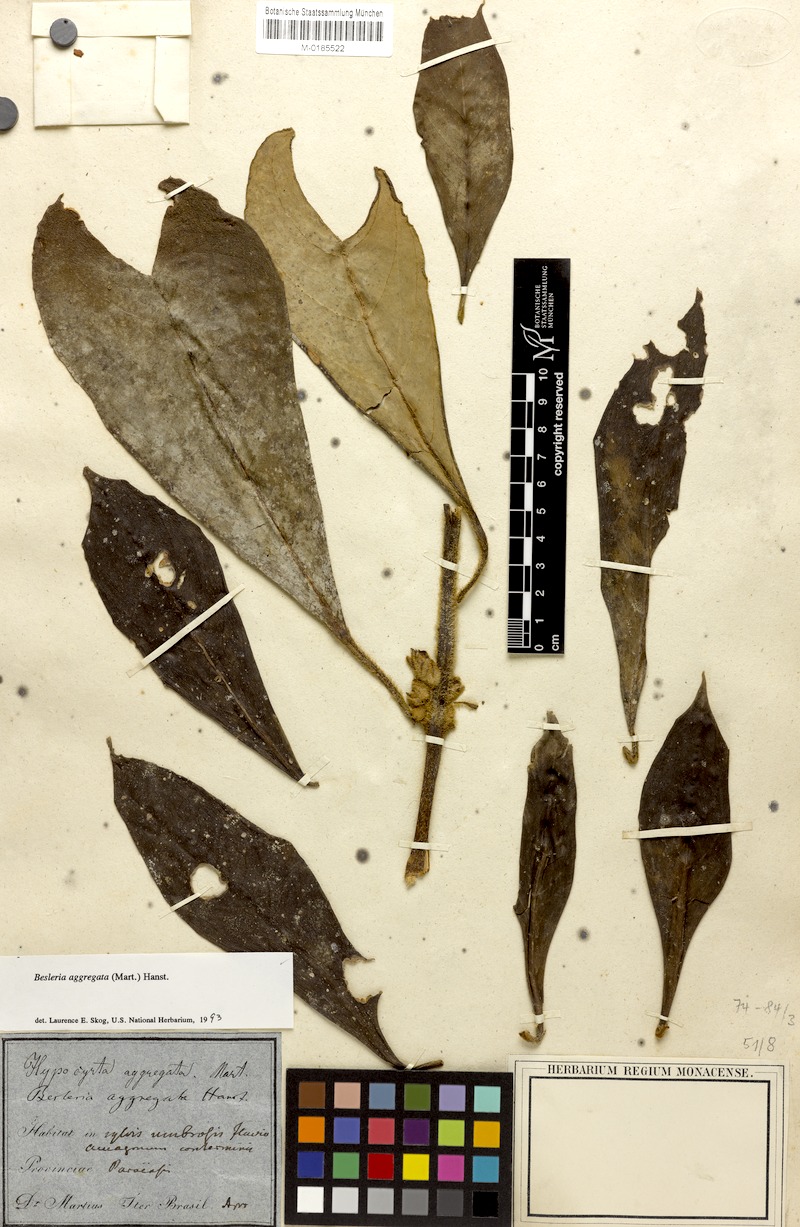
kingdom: Plantae
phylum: Tracheophyta
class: Magnoliopsida
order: Lamiales
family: Gesneriaceae
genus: Besleria
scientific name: Besleria aggregata
